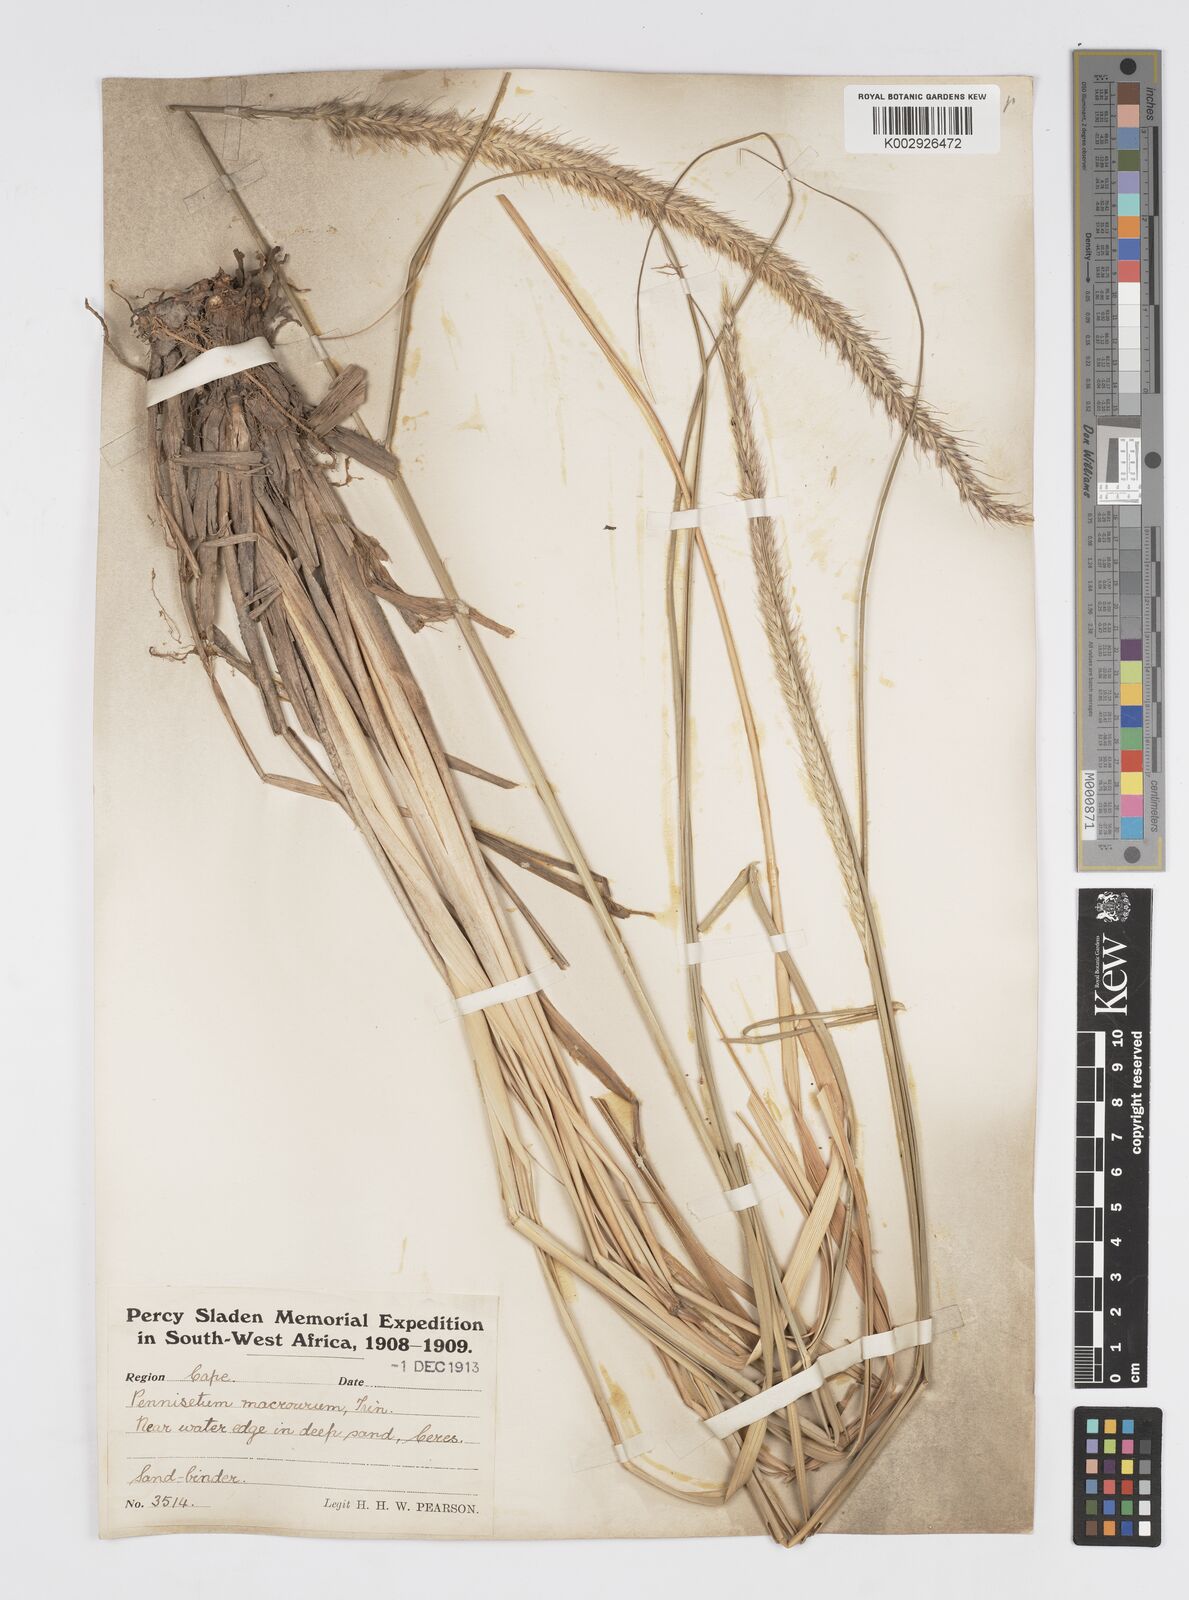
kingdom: Plantae
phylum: Tracheophyta
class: Liliopsida
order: Poales
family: Poaceae
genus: Cenchrus
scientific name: Cenchrus caudatus
